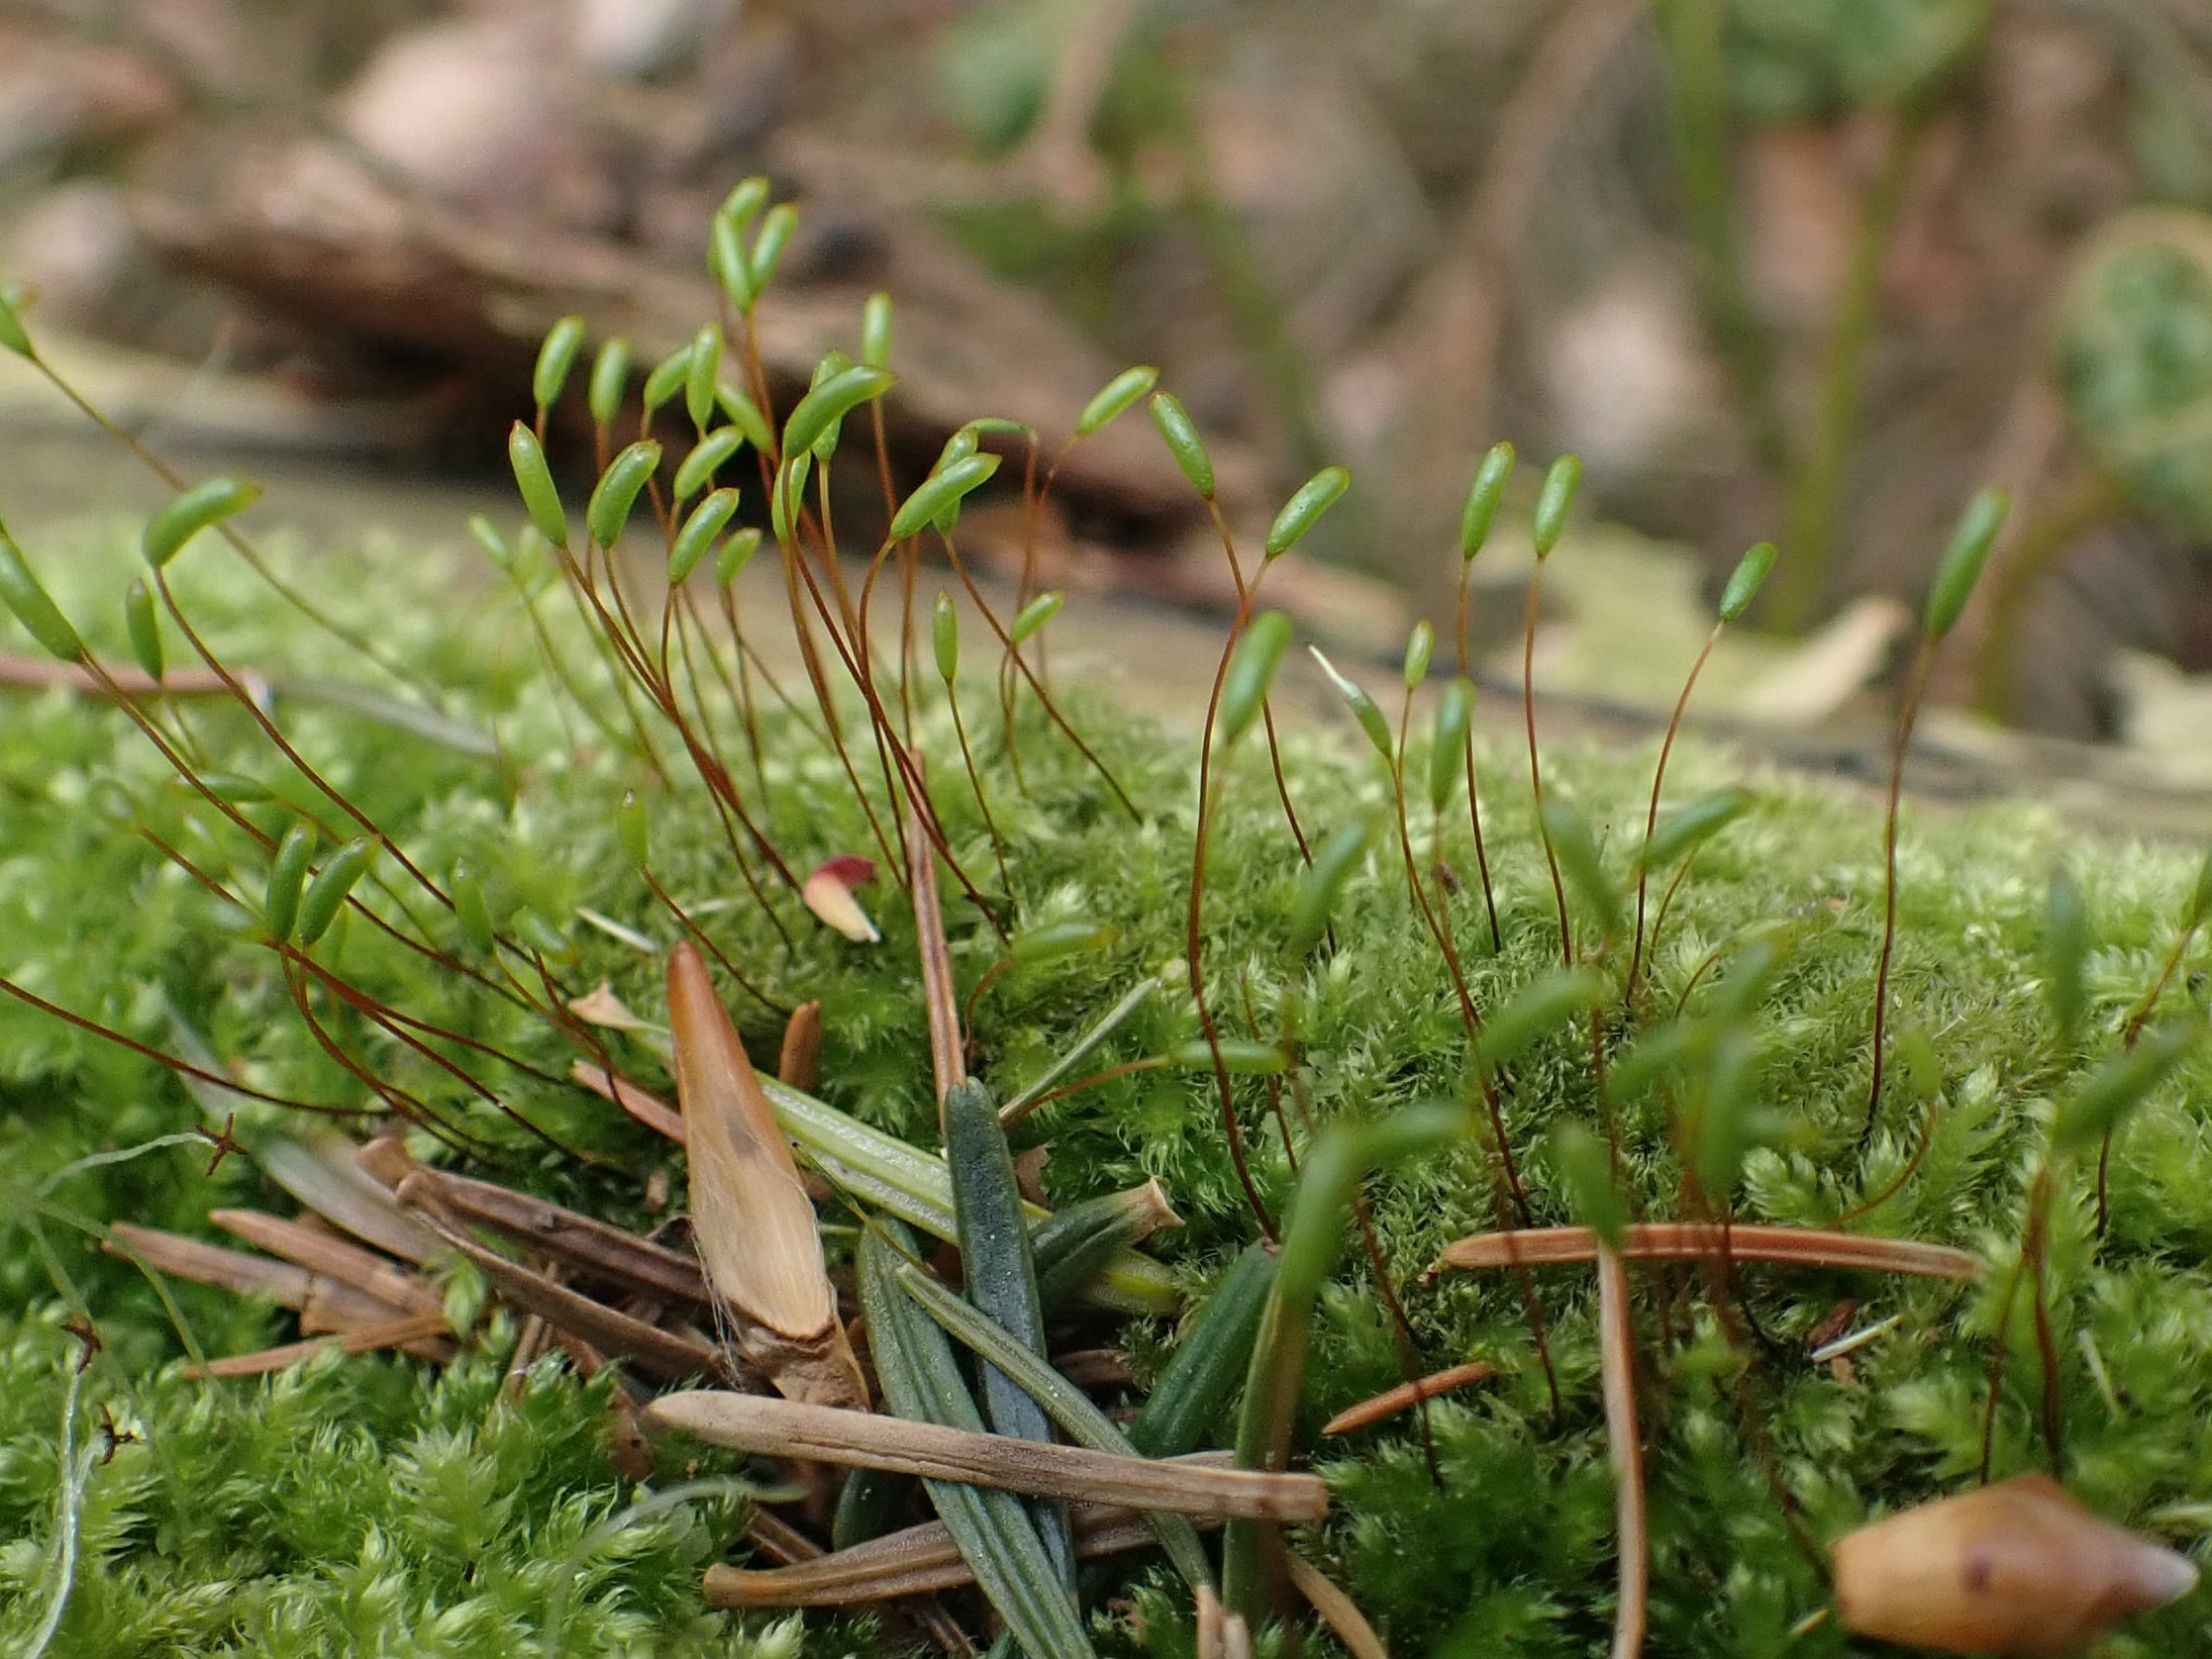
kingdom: Plantae
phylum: Bryophyta
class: Bryopsida
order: Hypnales
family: Plagiotheciaceae
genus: Herzogiella
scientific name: Herzogiella seligeri
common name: Stub-pølsekapsel
